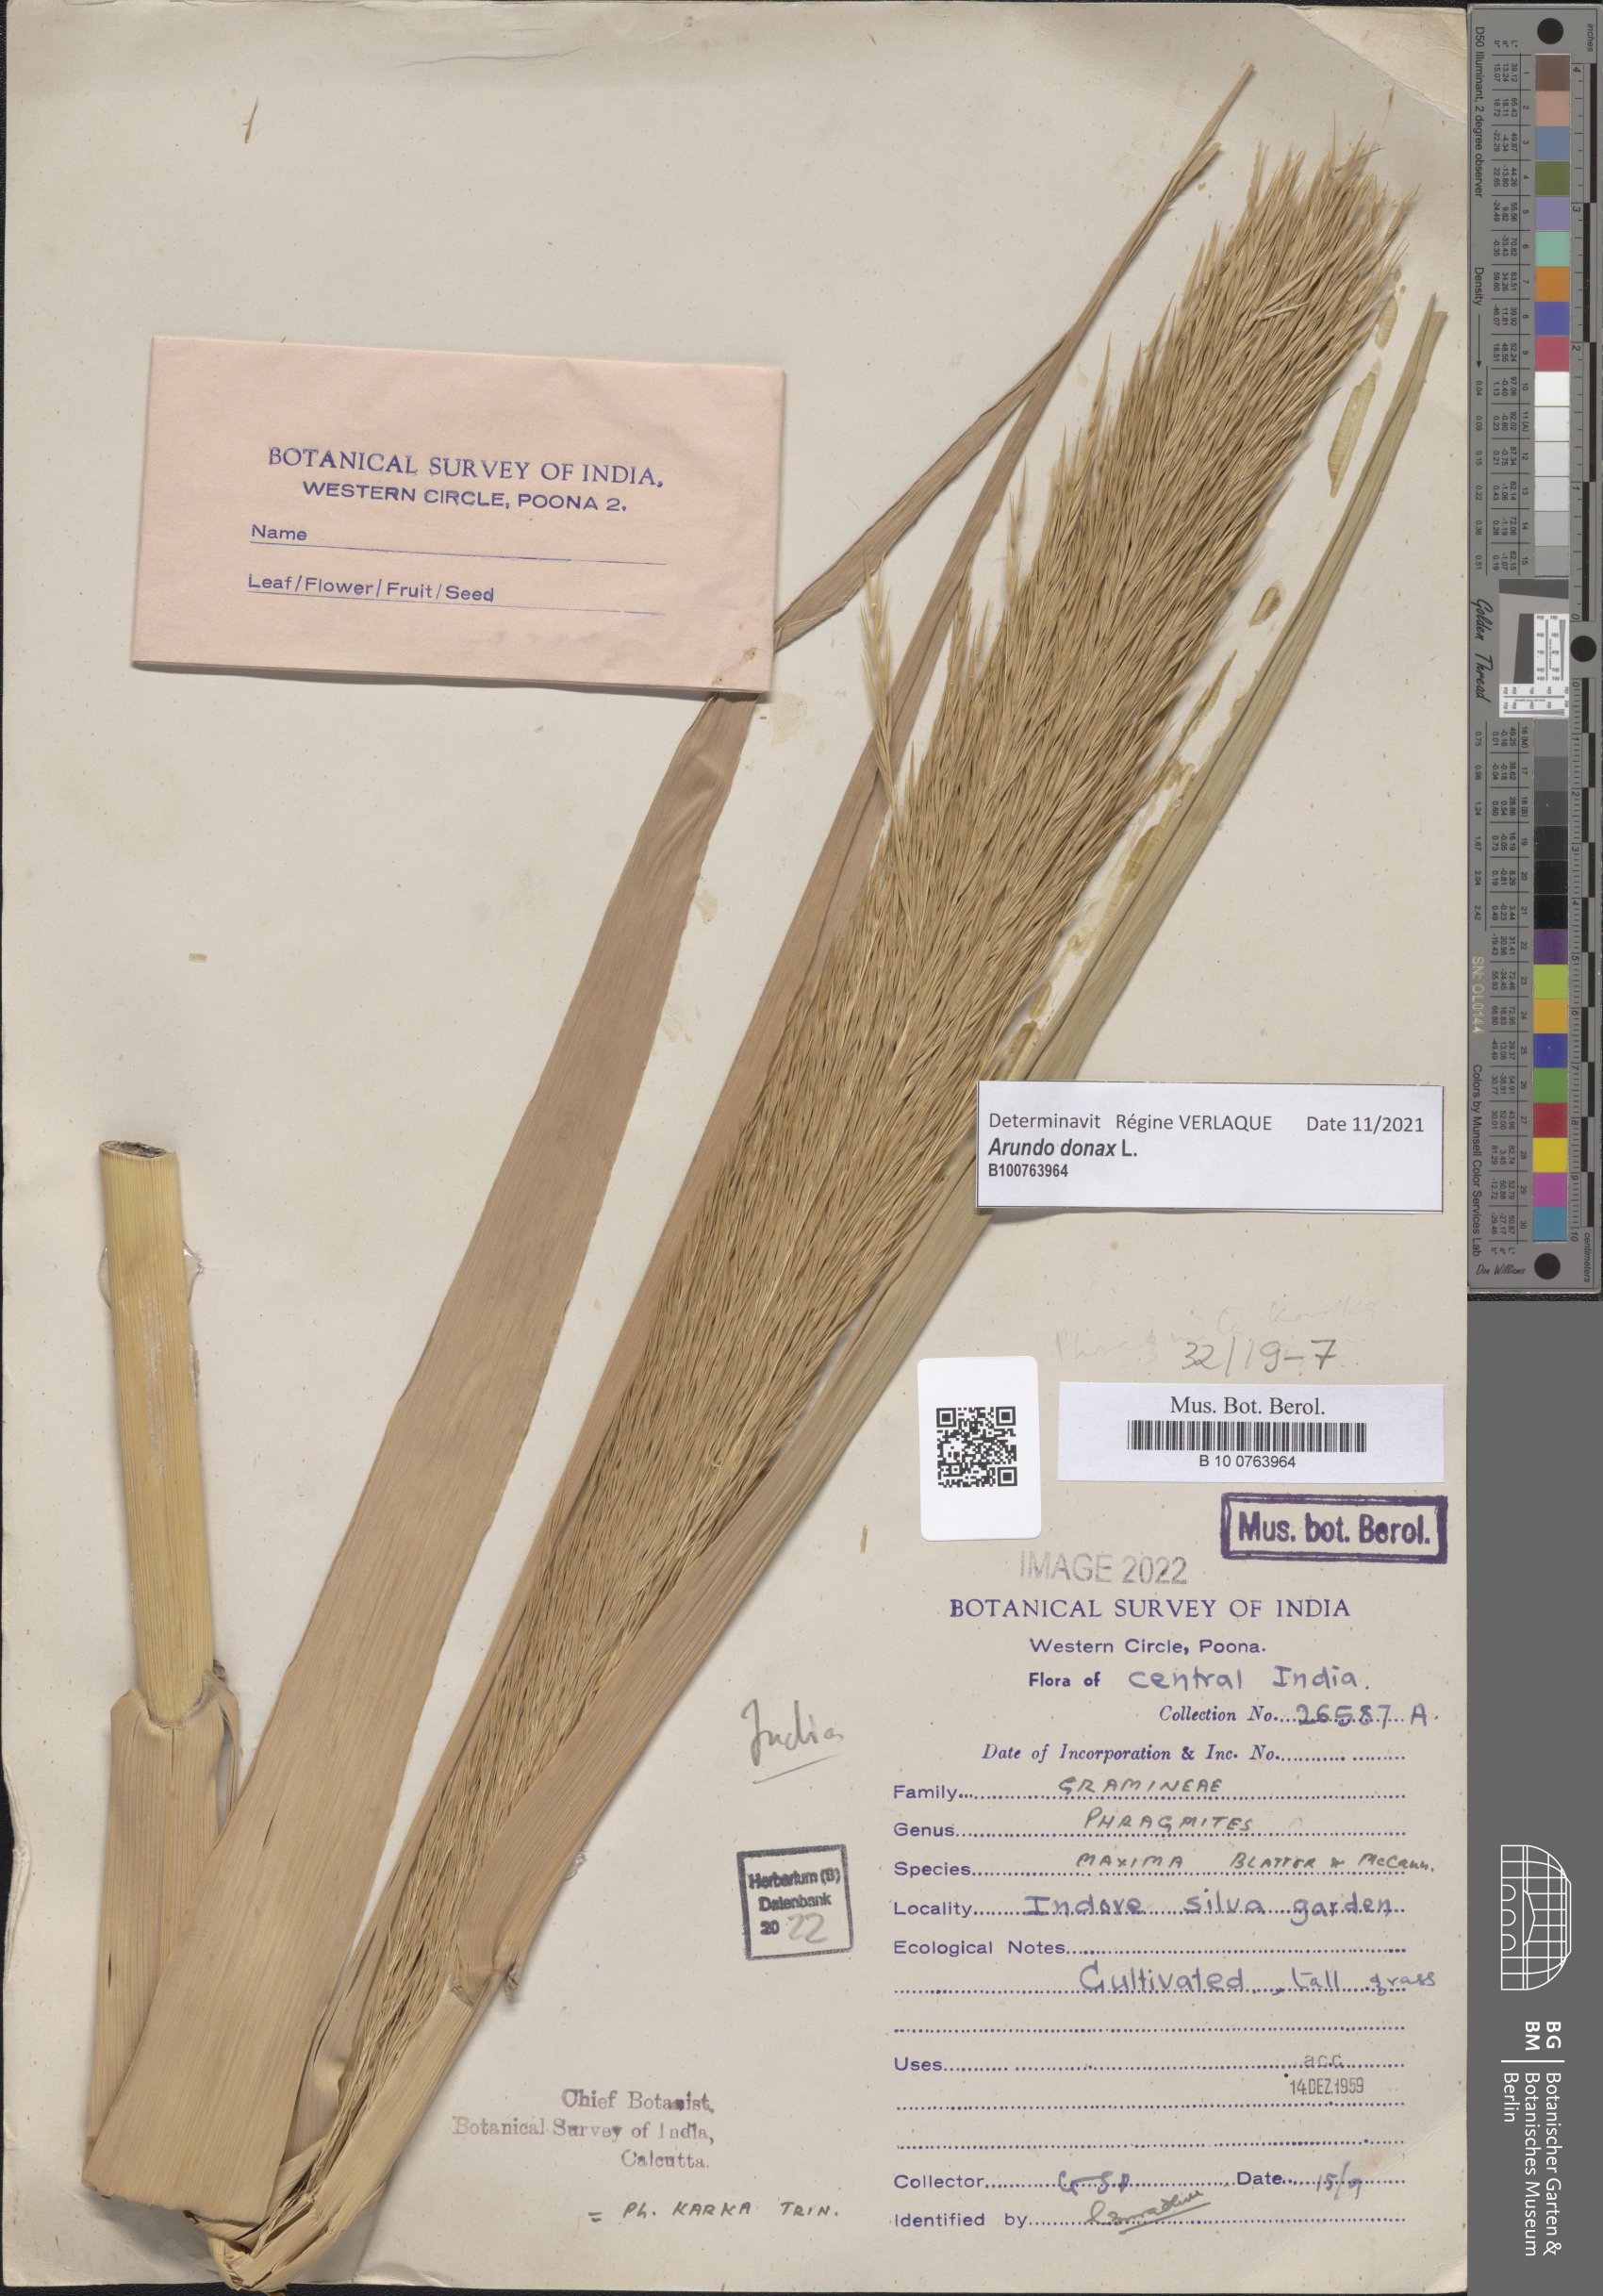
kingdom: Plantae
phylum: Tracheophyta
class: Liliopsida
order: Poales
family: Poaceae
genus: Phragmites
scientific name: Phragmites karka
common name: Tropical reed
